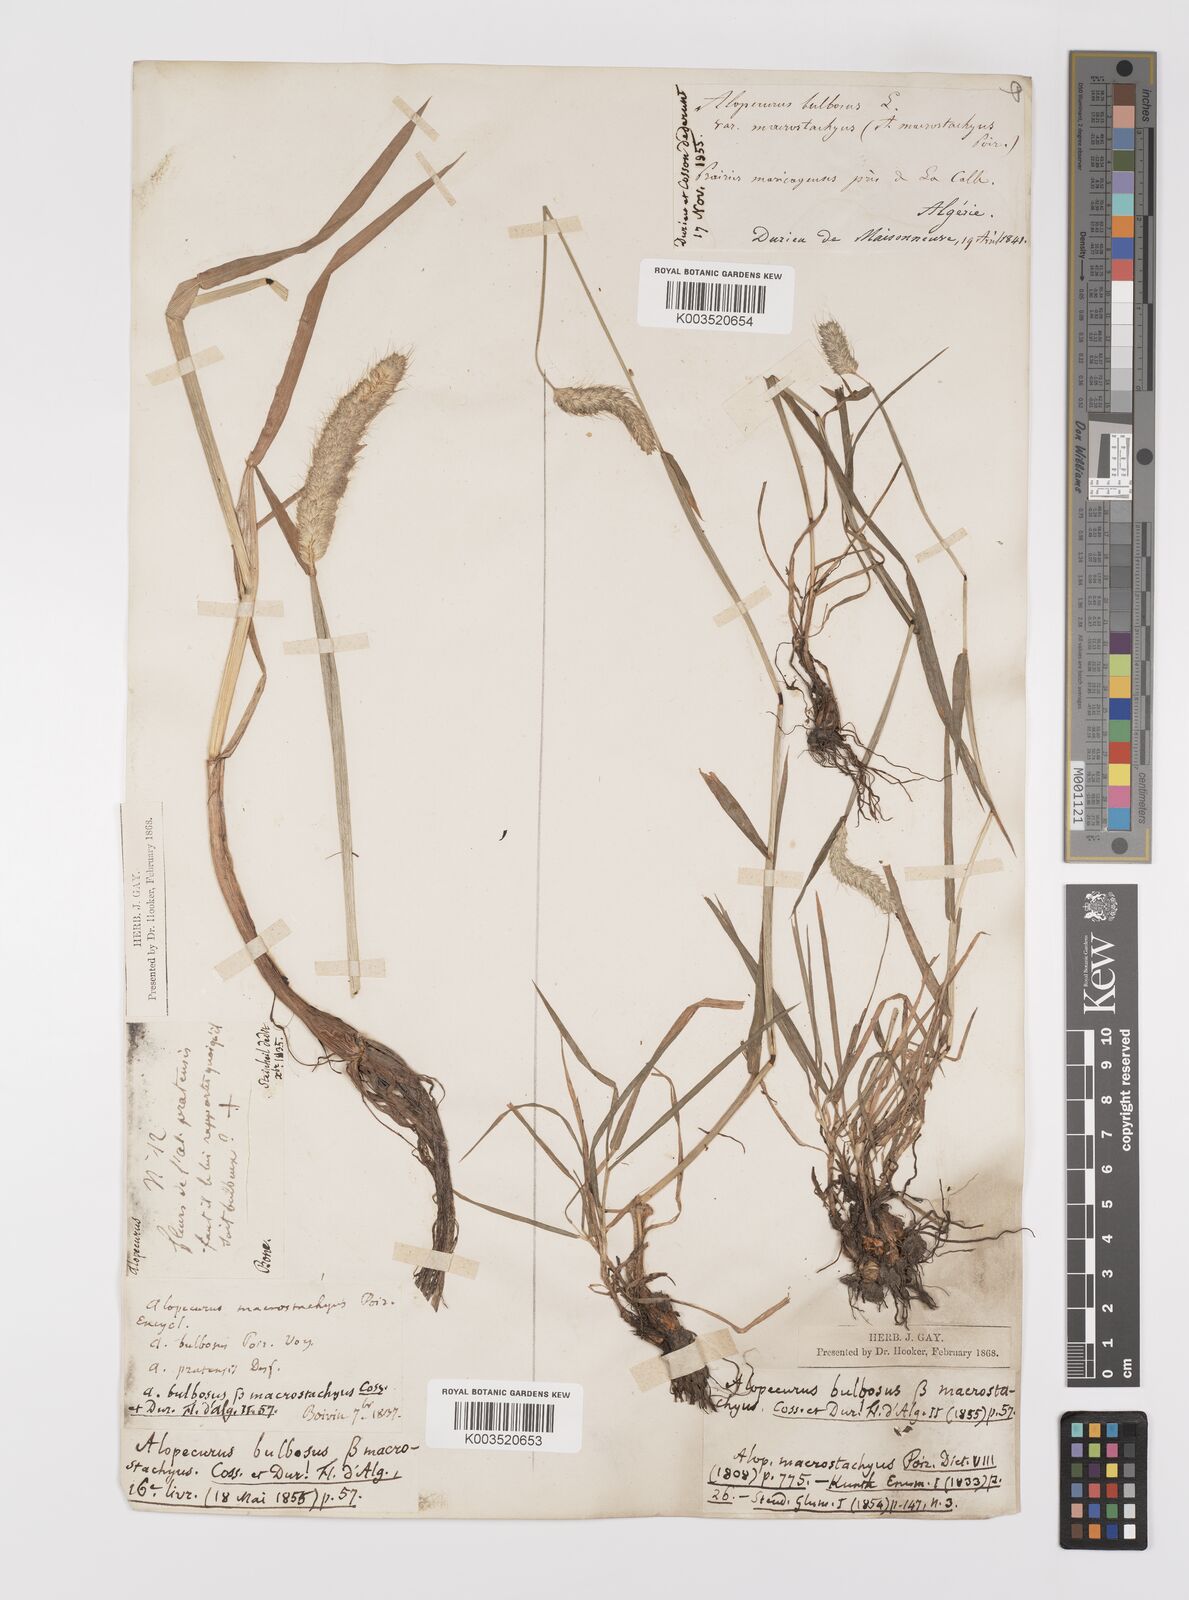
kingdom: Plantae
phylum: Tracheophyta
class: Liliopsida
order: Poales
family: Poaceae
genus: Alopecurus
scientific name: Alopecurus bulbosus
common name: Bulbous foxtail
